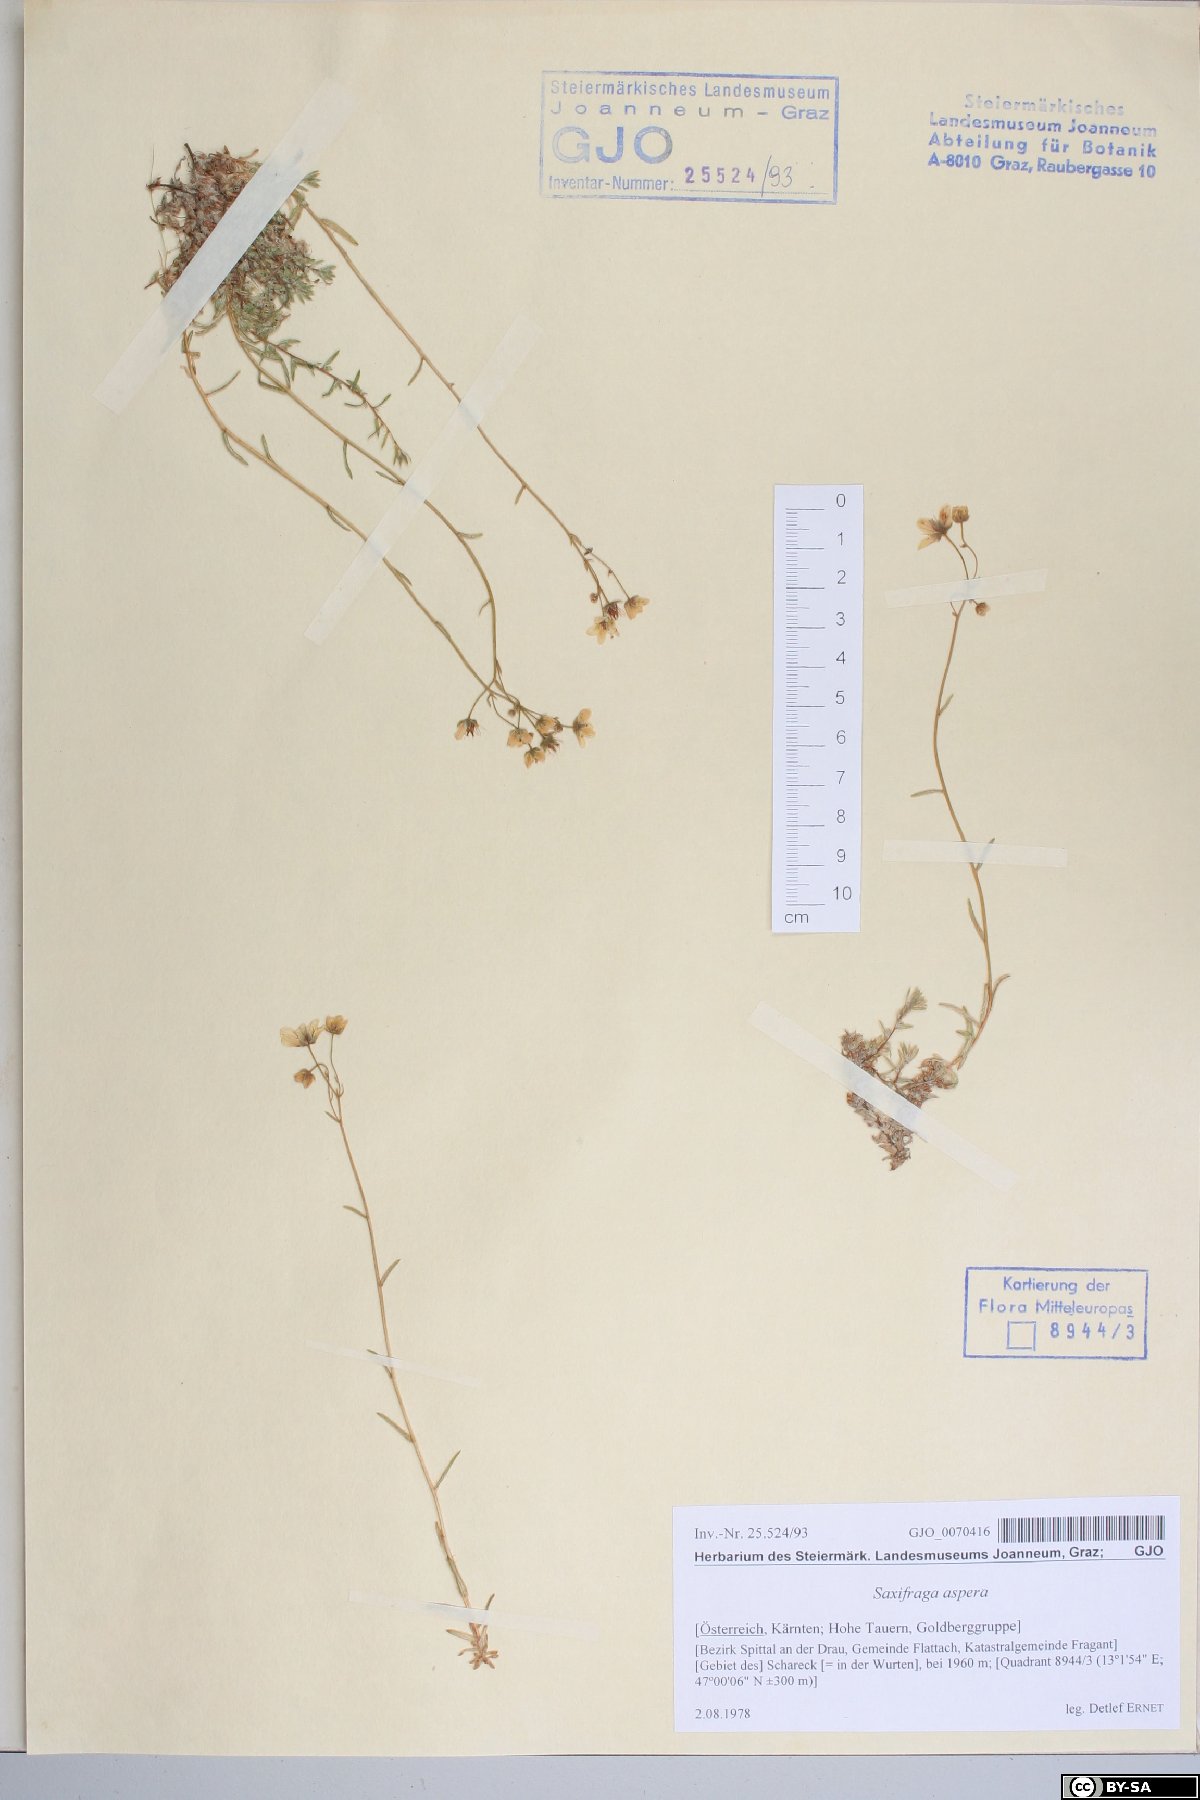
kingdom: Plantae
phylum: Tracheophyta
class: Magnoliopsida
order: Saxifragales
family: Saxifragaceae
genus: Saxifraga
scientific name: Saxifraga aspera
